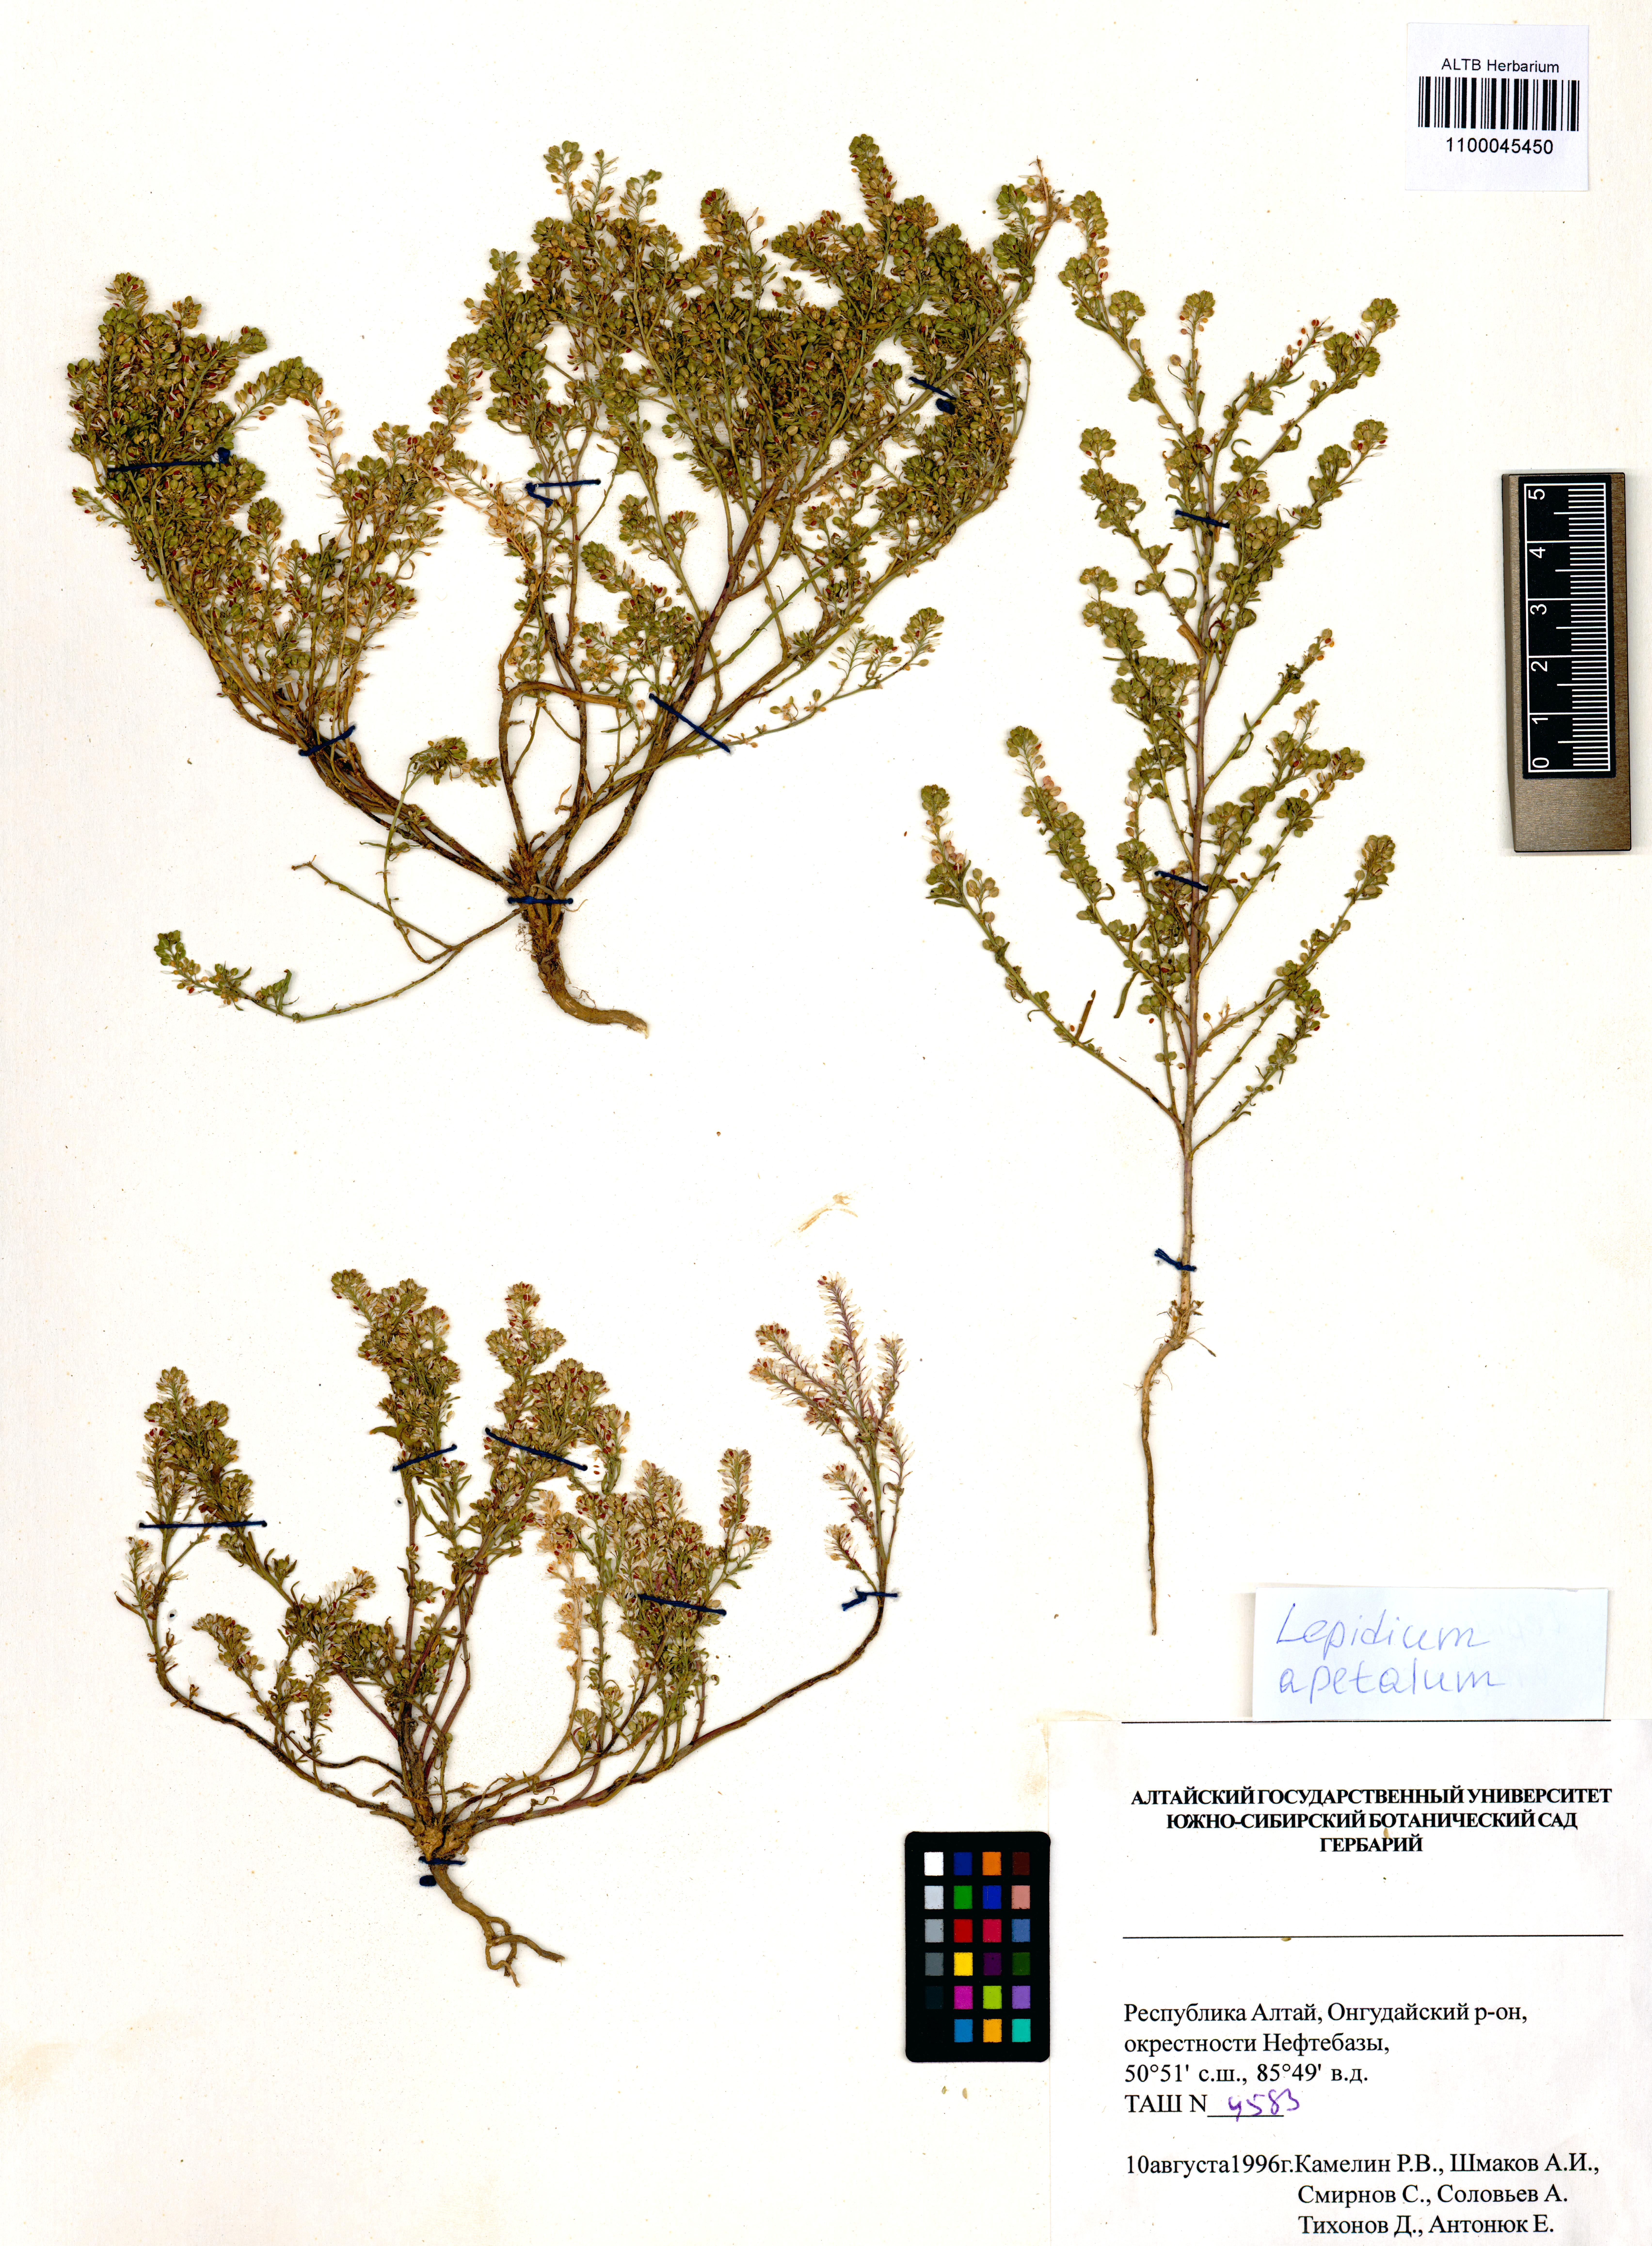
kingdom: Plantae
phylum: Tracheophyta
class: Magnoliopsida
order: Brassicales
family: Brassicaceae
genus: Lepidium
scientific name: Lepidium apetalum
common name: Pepperweed
